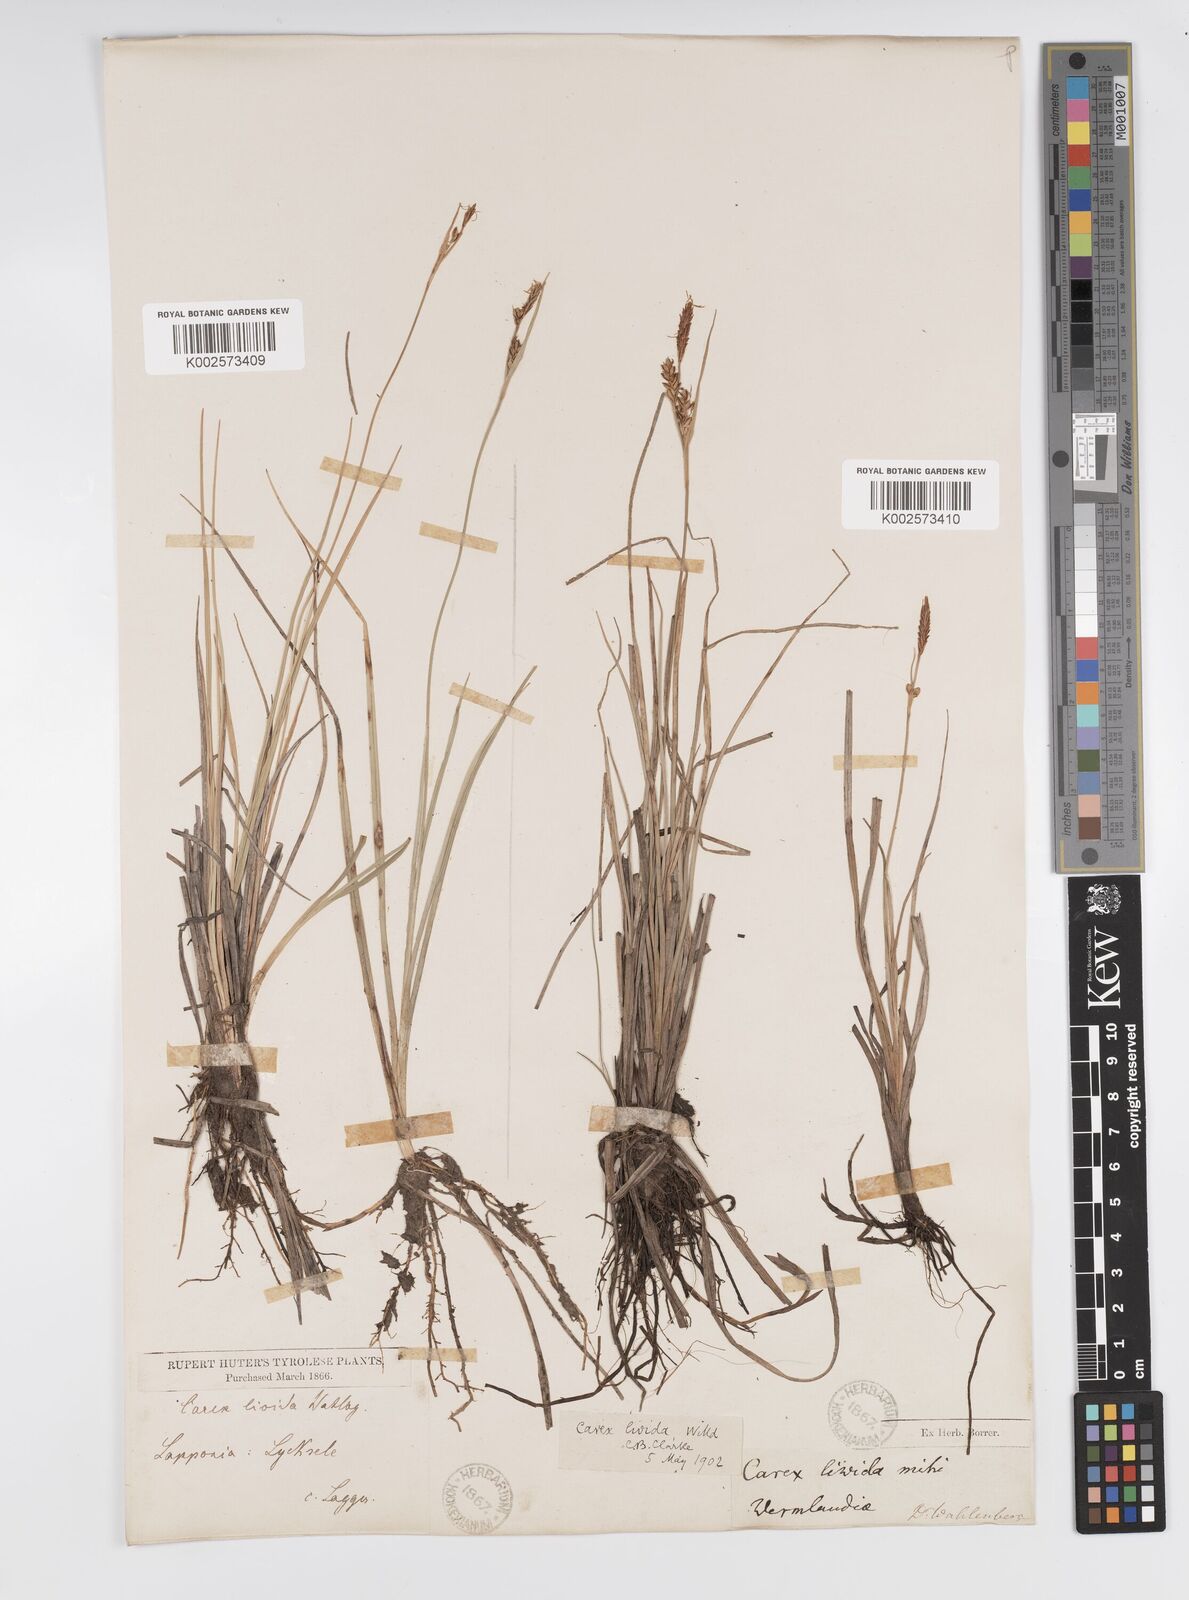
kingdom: Plantae
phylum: Tracheophyta
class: Liliopsida
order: Poales
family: Cyperaceae
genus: Carex
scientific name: Carex livida
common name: Livid sedge
